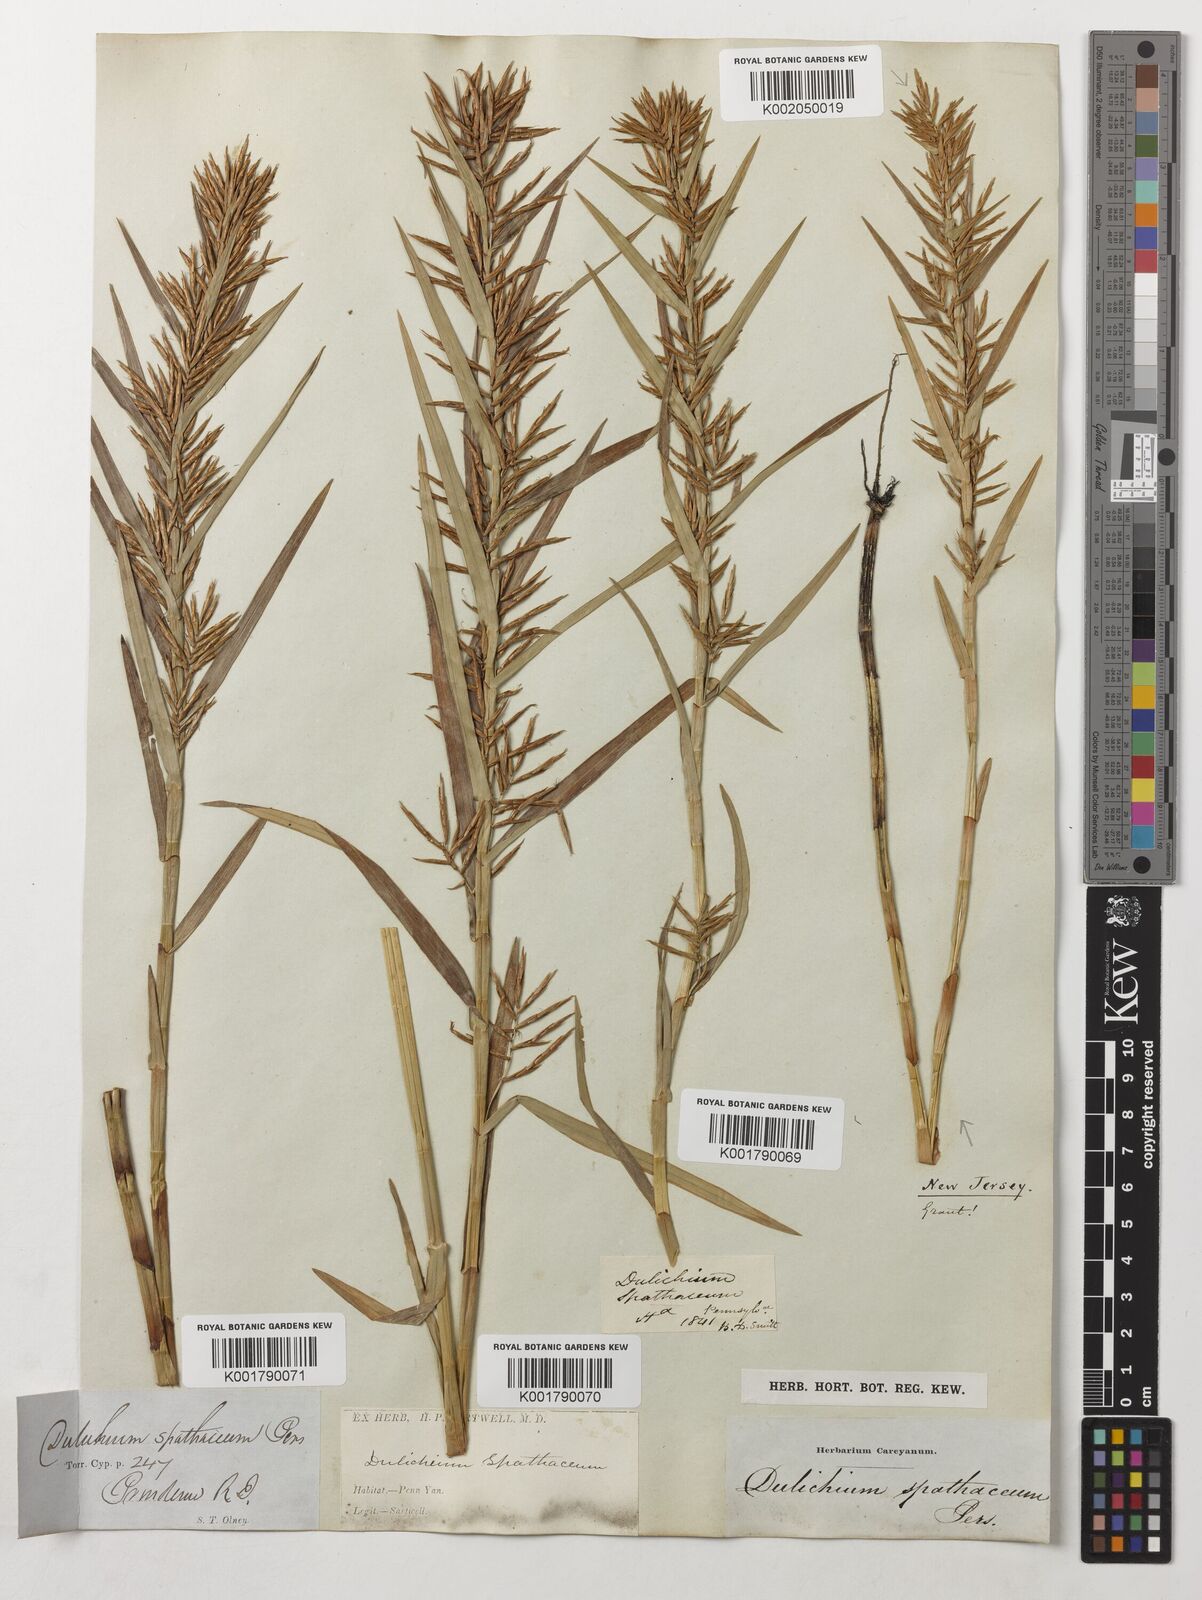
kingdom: Plantae
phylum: Tracheophyta
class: Liliopsida
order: Poales
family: Cyperaceae
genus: Dulichium
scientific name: Dulichium arundinaceum
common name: Three-way sedge
